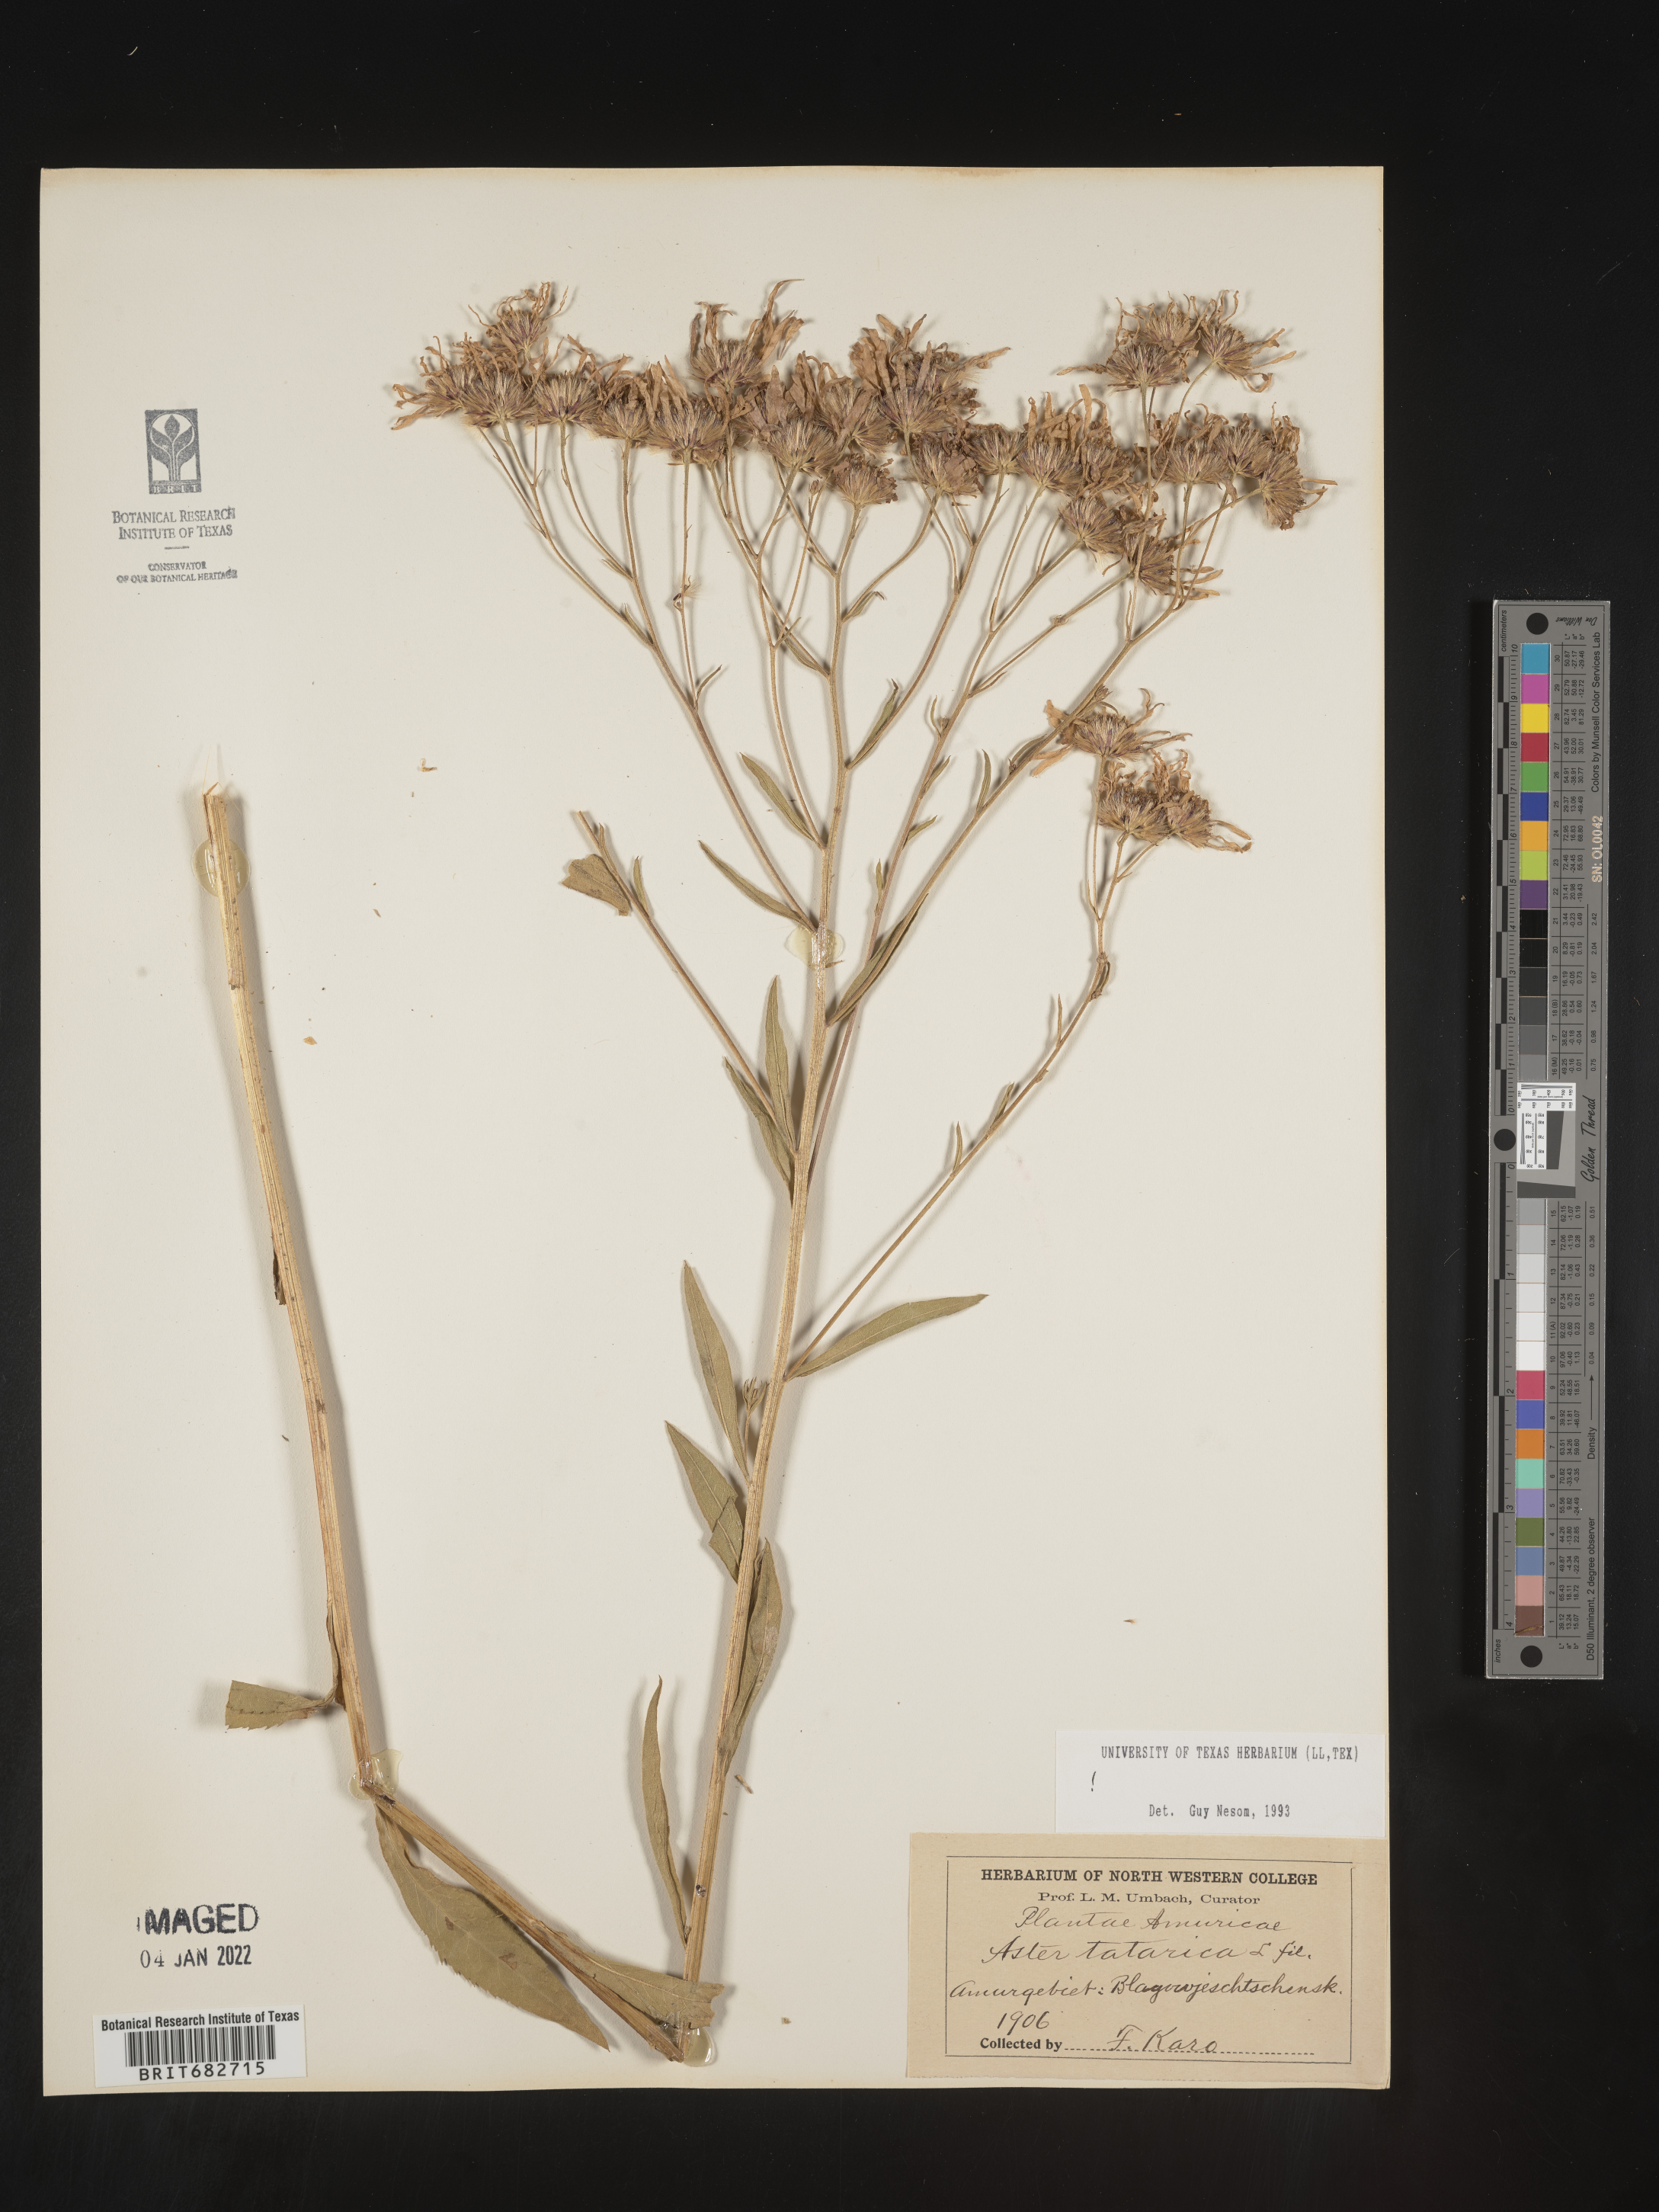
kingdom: Plantae
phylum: Tracheophyta
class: Magnoliopsida
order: Asterales
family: Asteraceae
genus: Aster
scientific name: Aster
